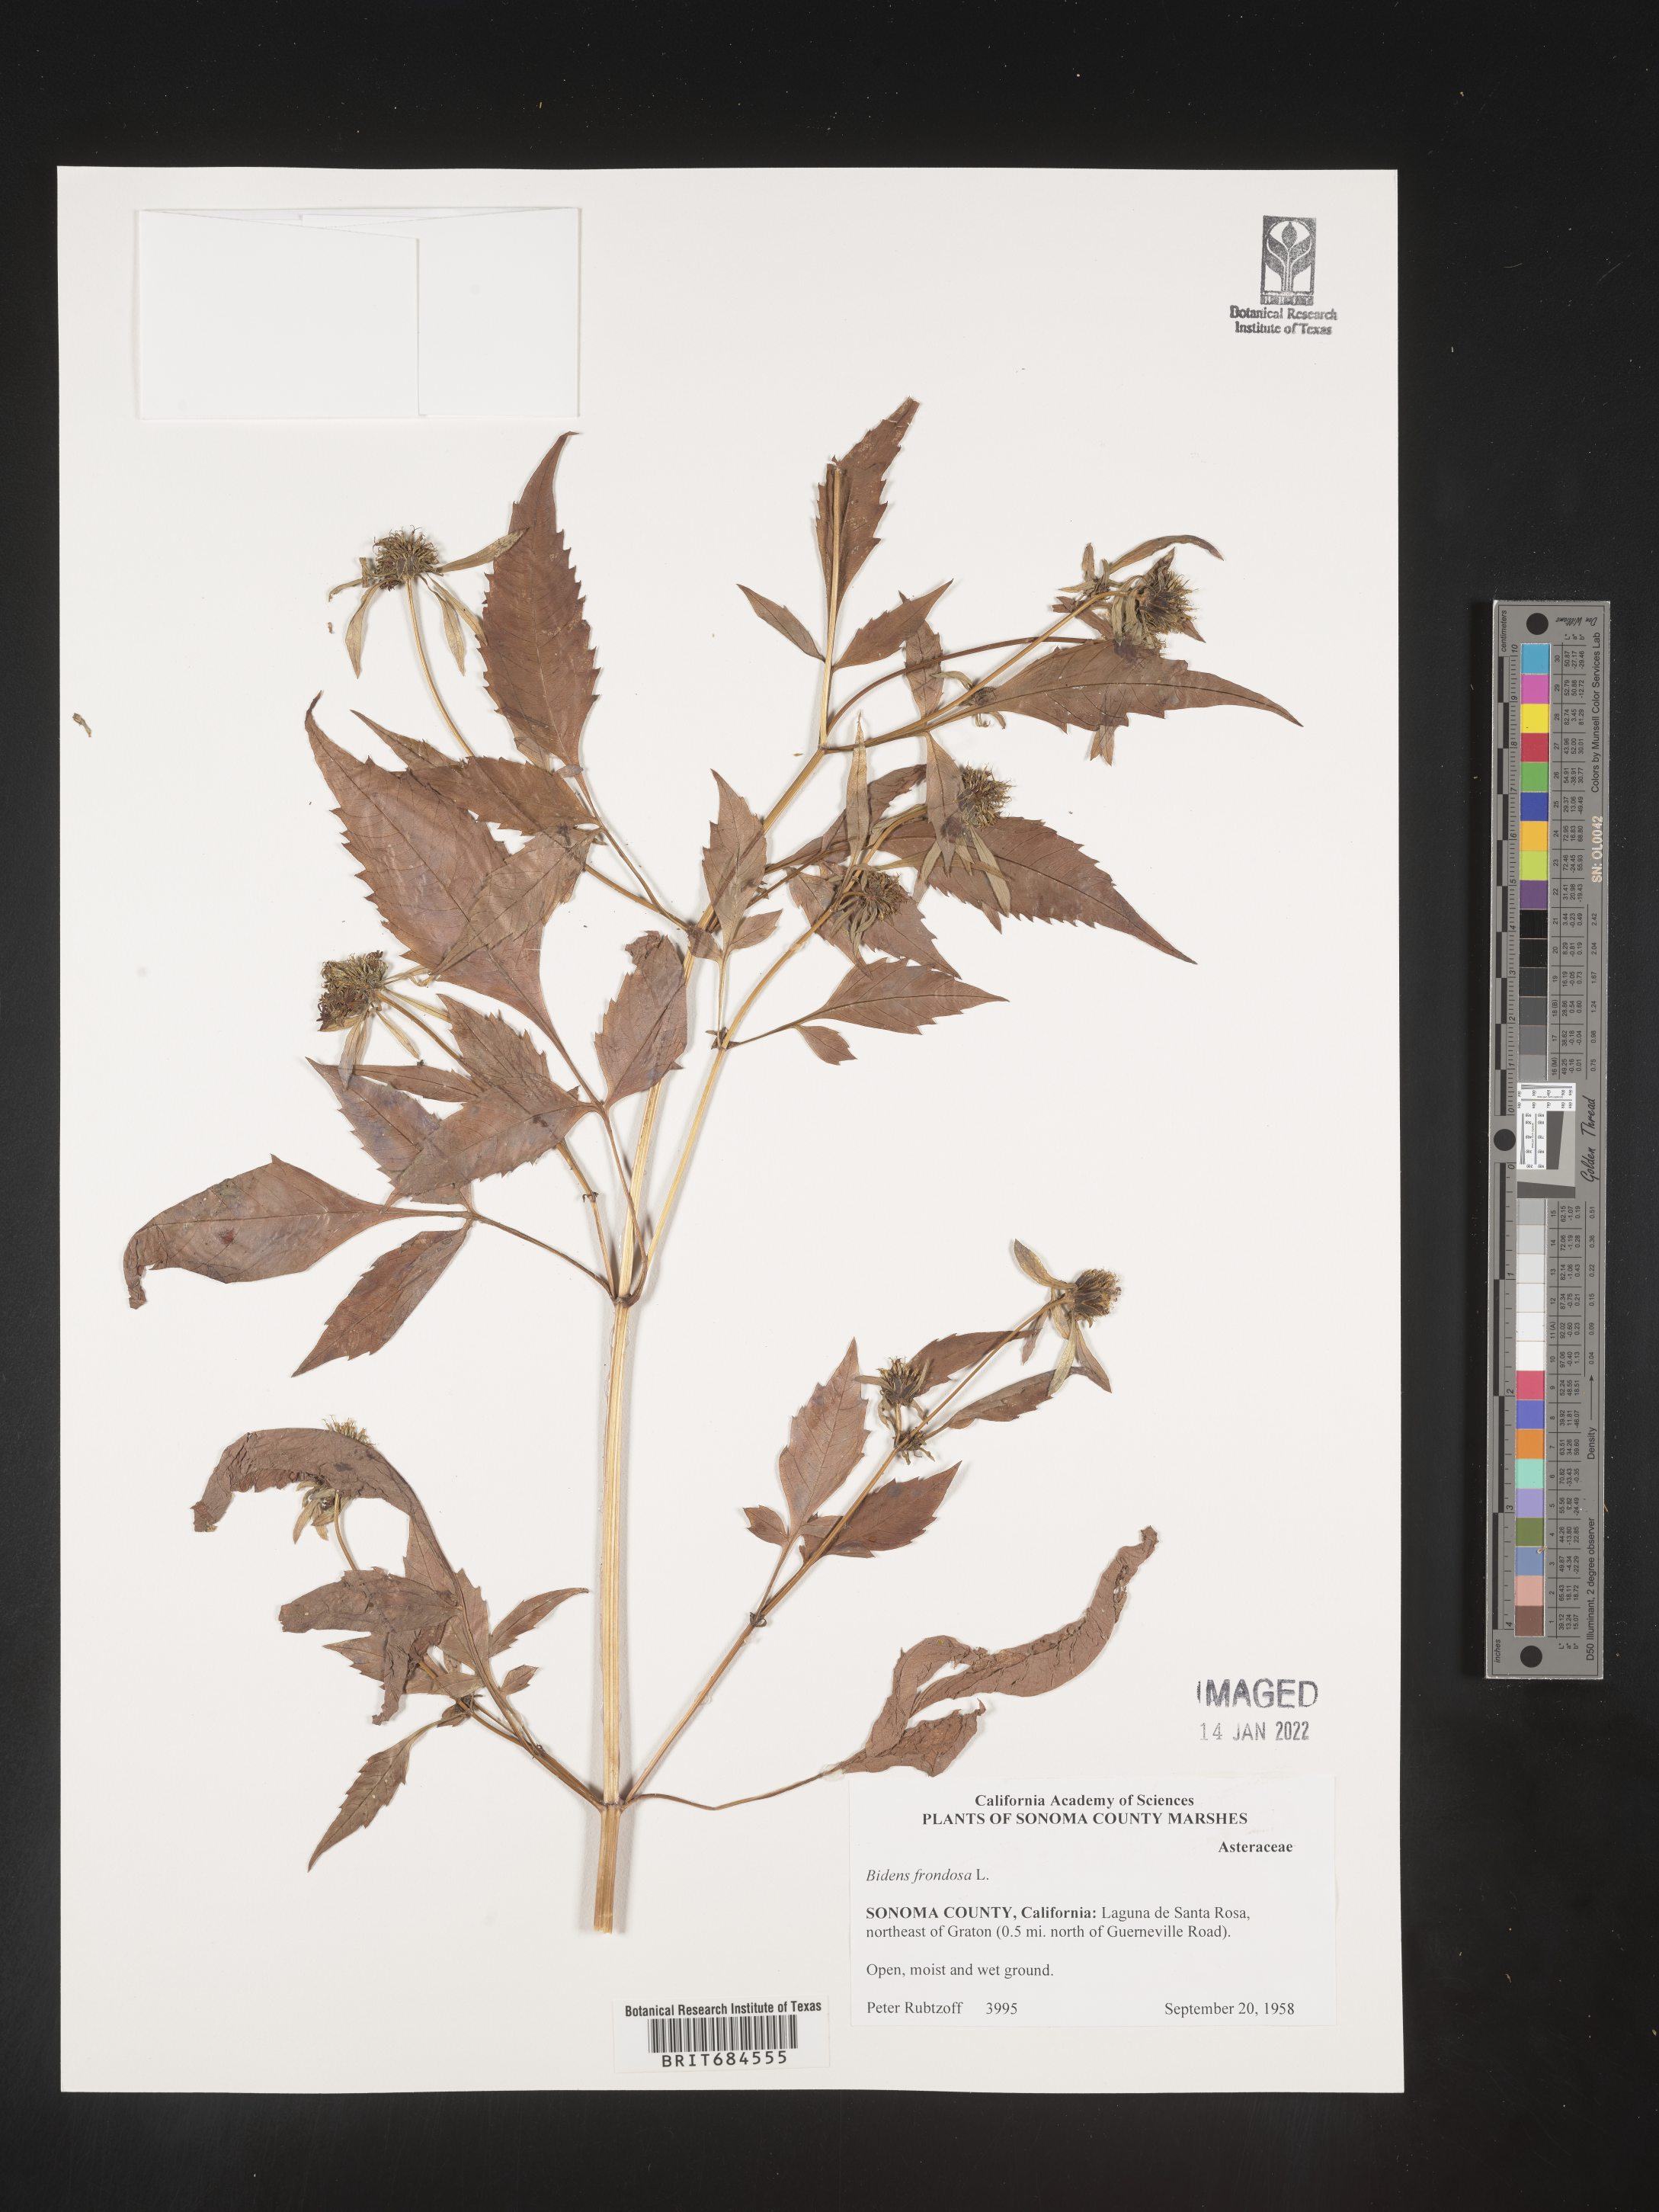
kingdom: Plantae
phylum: Tracheophyta
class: Magnoliopsida
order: Asterales
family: Asteraceae
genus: Bidens
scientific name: Bidens frondosa
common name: Beggarticks
